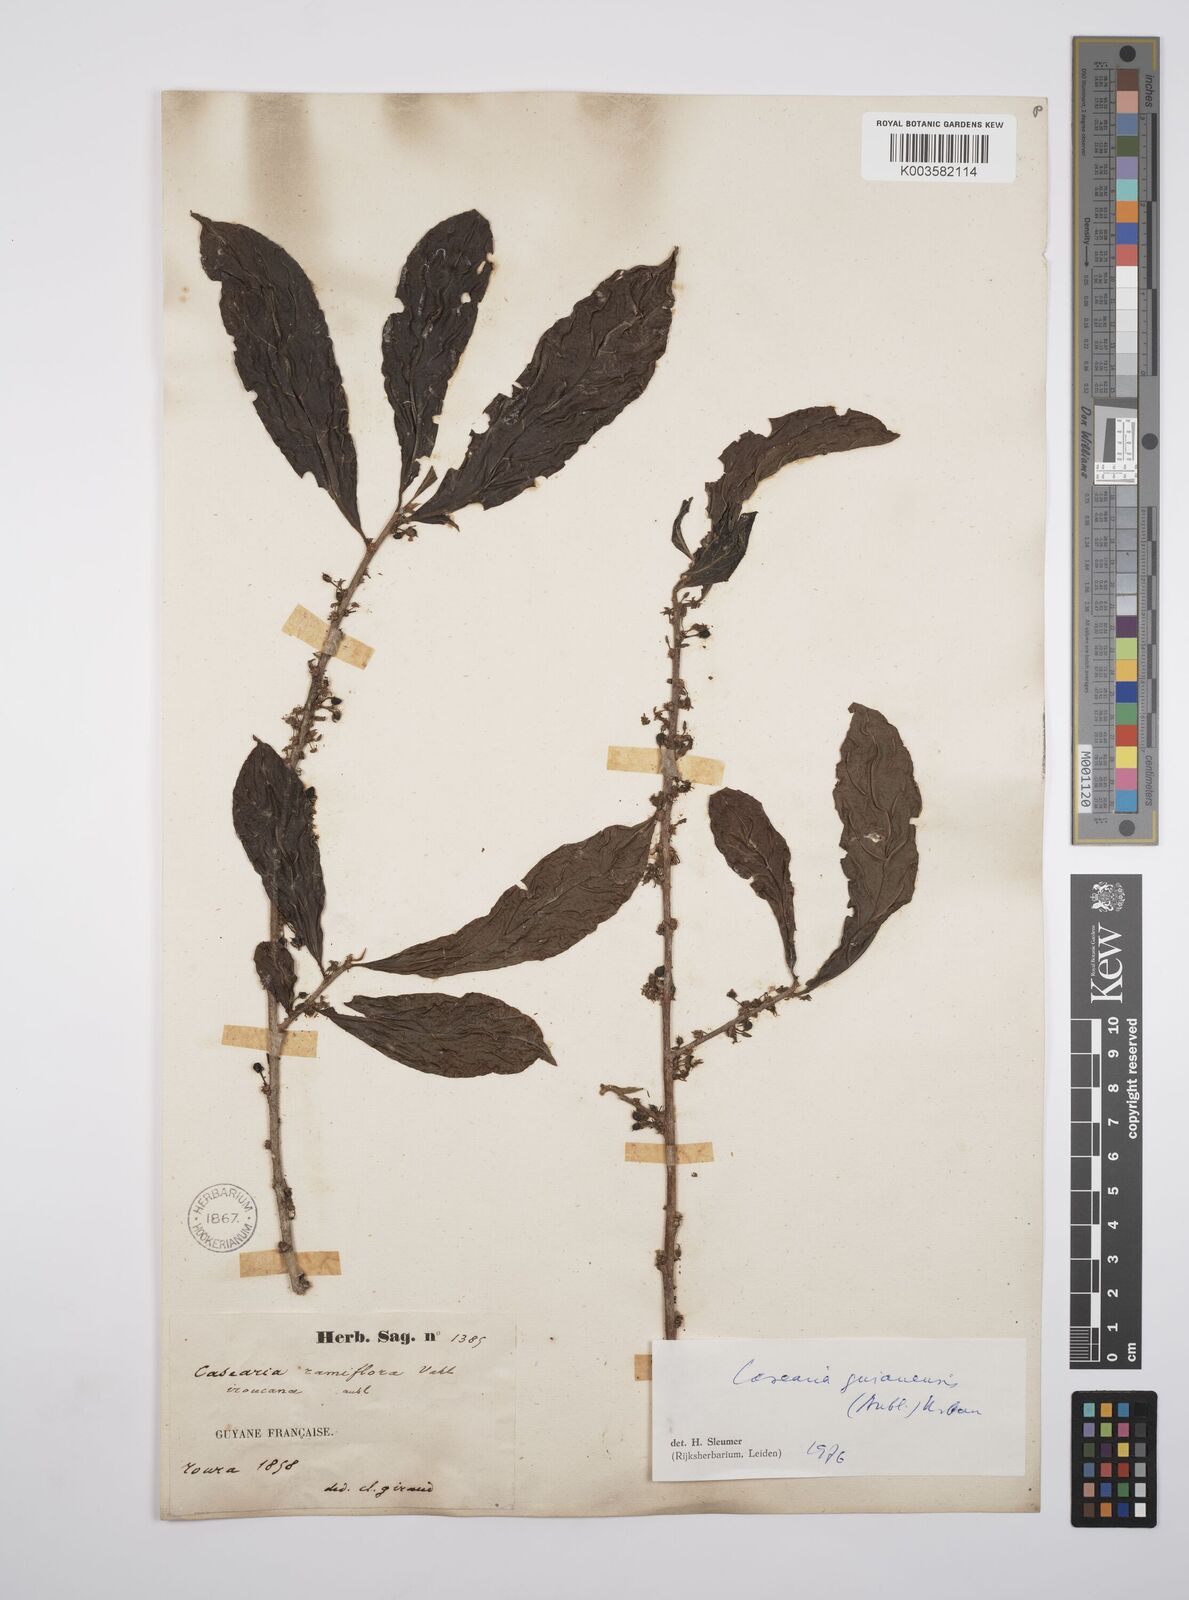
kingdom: Plantae
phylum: Tracheophyta
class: Magnoliopsida
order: Malpighiales
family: Salicaceae
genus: Casearia
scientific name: Casearia guianensis
